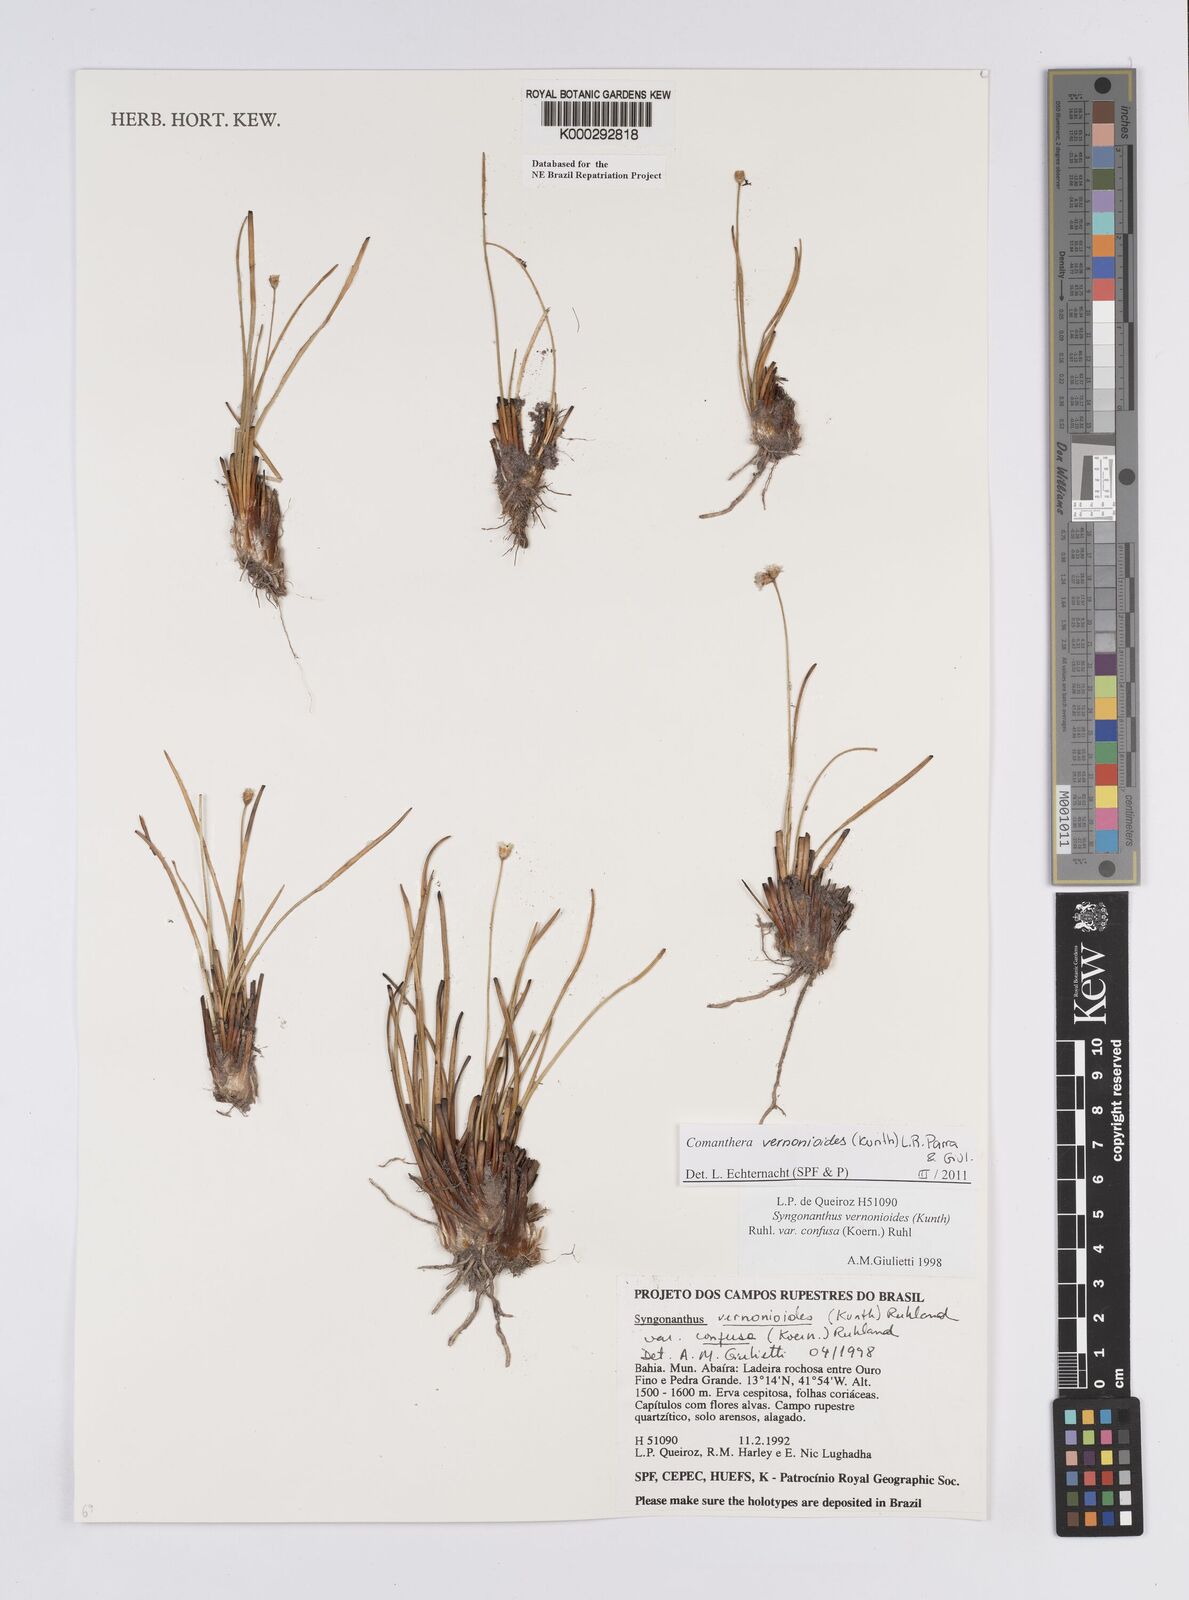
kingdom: Plantae
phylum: Tracheophyta
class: Liliopsida
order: Poales
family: Eriocaulaceae
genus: Comanthera
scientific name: Comanthera centauroides
